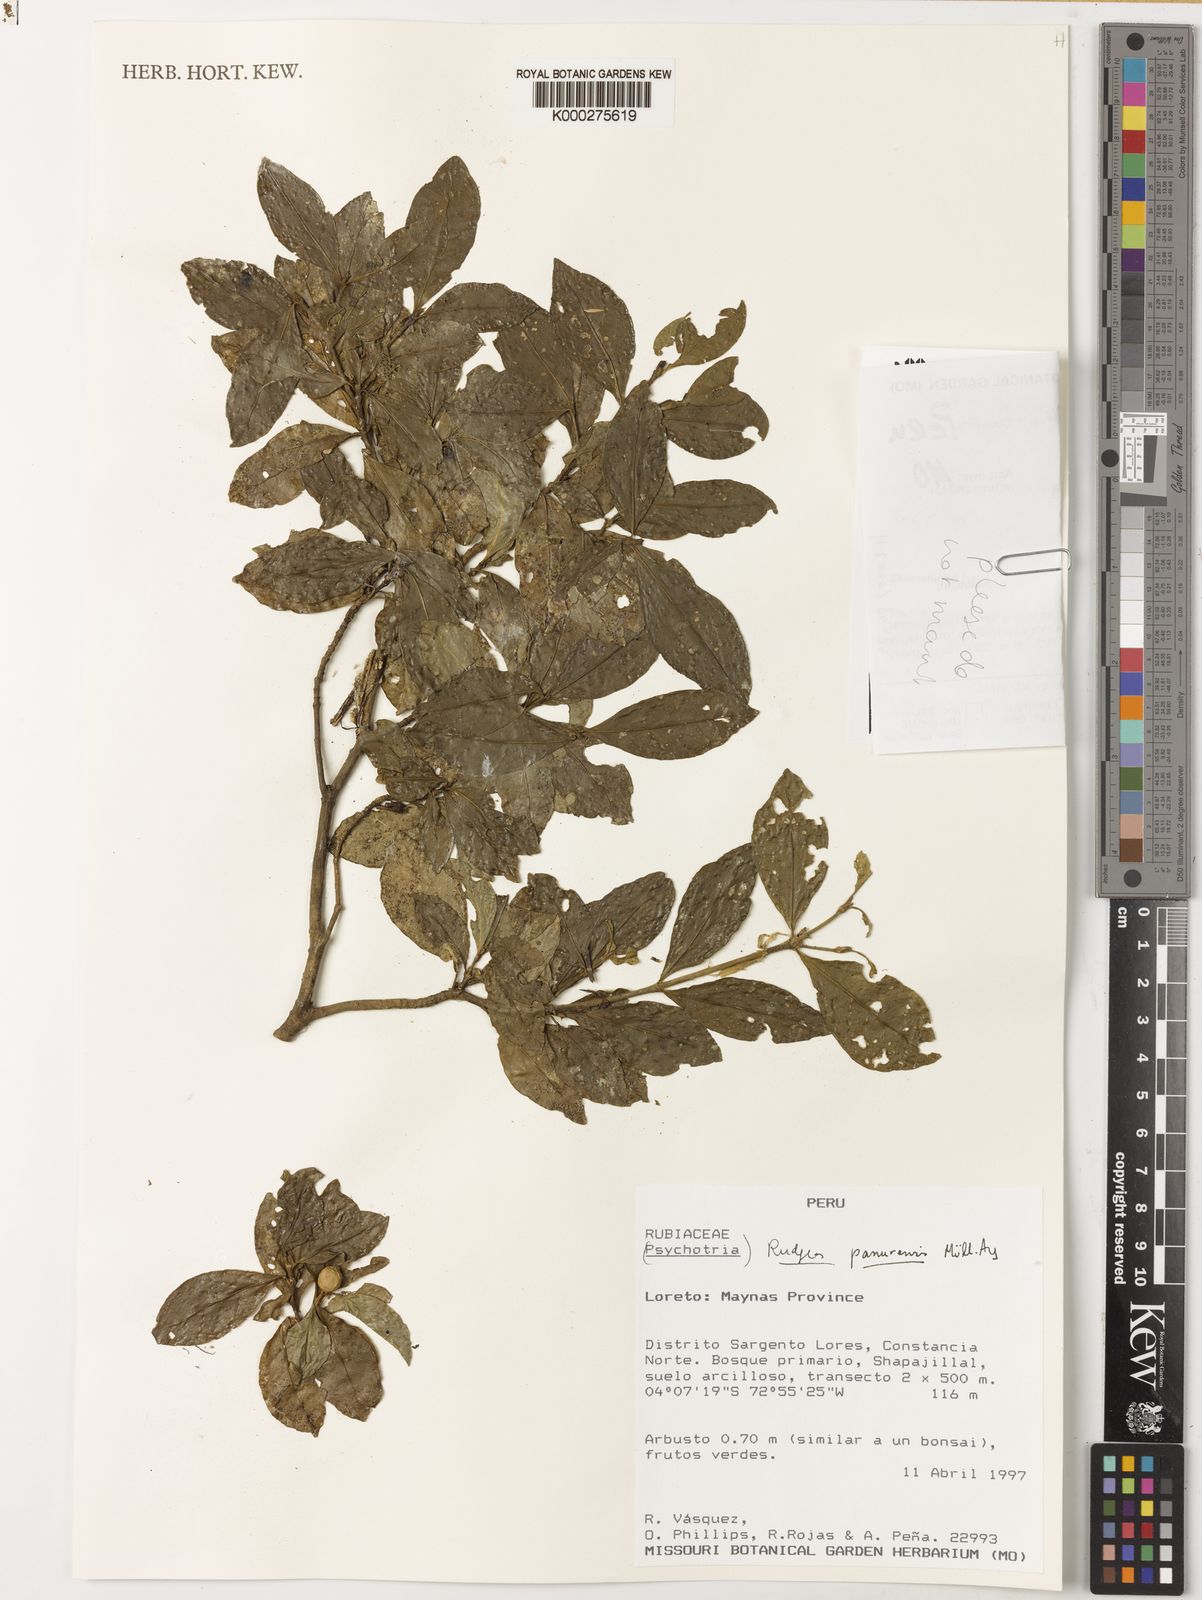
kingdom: Plantae
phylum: Tracheophyta
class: Magnoliopsida
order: Gentianales
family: Rubiaceae
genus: Rudgea
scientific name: Rudgea panurensis
